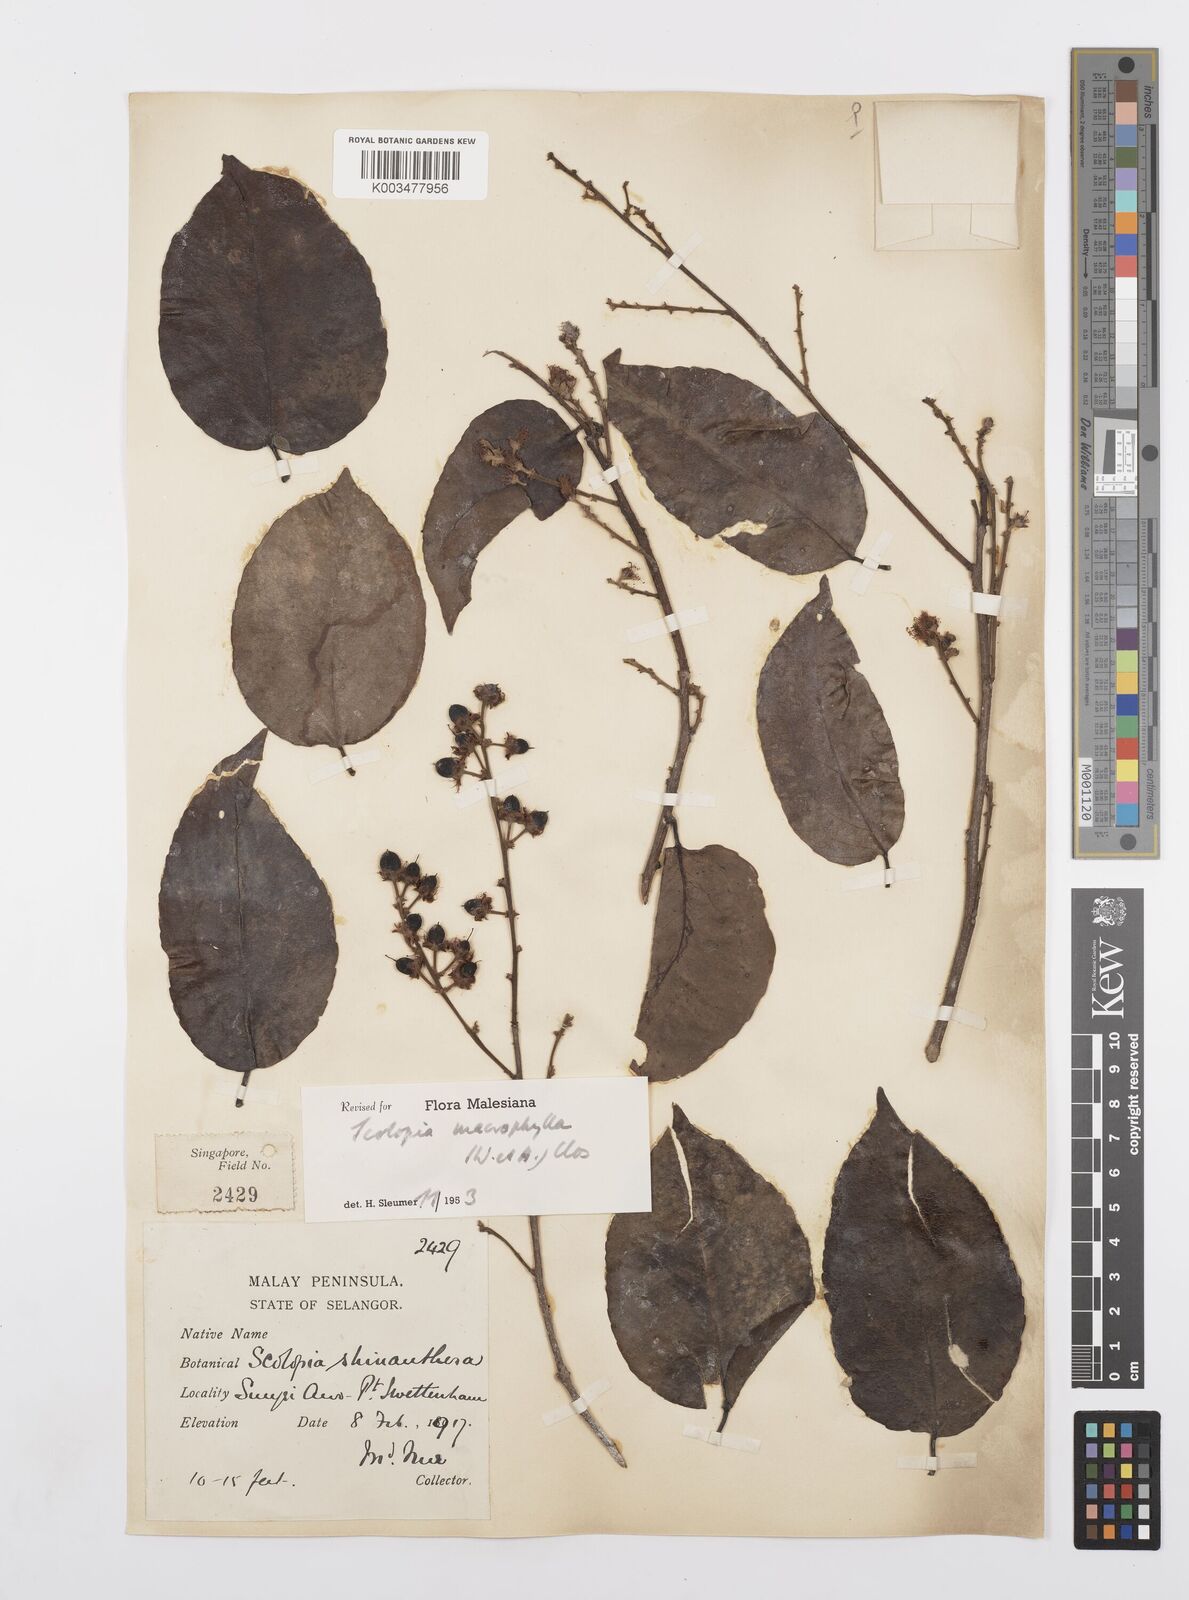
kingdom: Plantae
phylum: Tracheophyta
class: Magnoliopsida
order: Malpighiales
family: Salicaceae
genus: Scolopia
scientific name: Scolopia macrophylla
